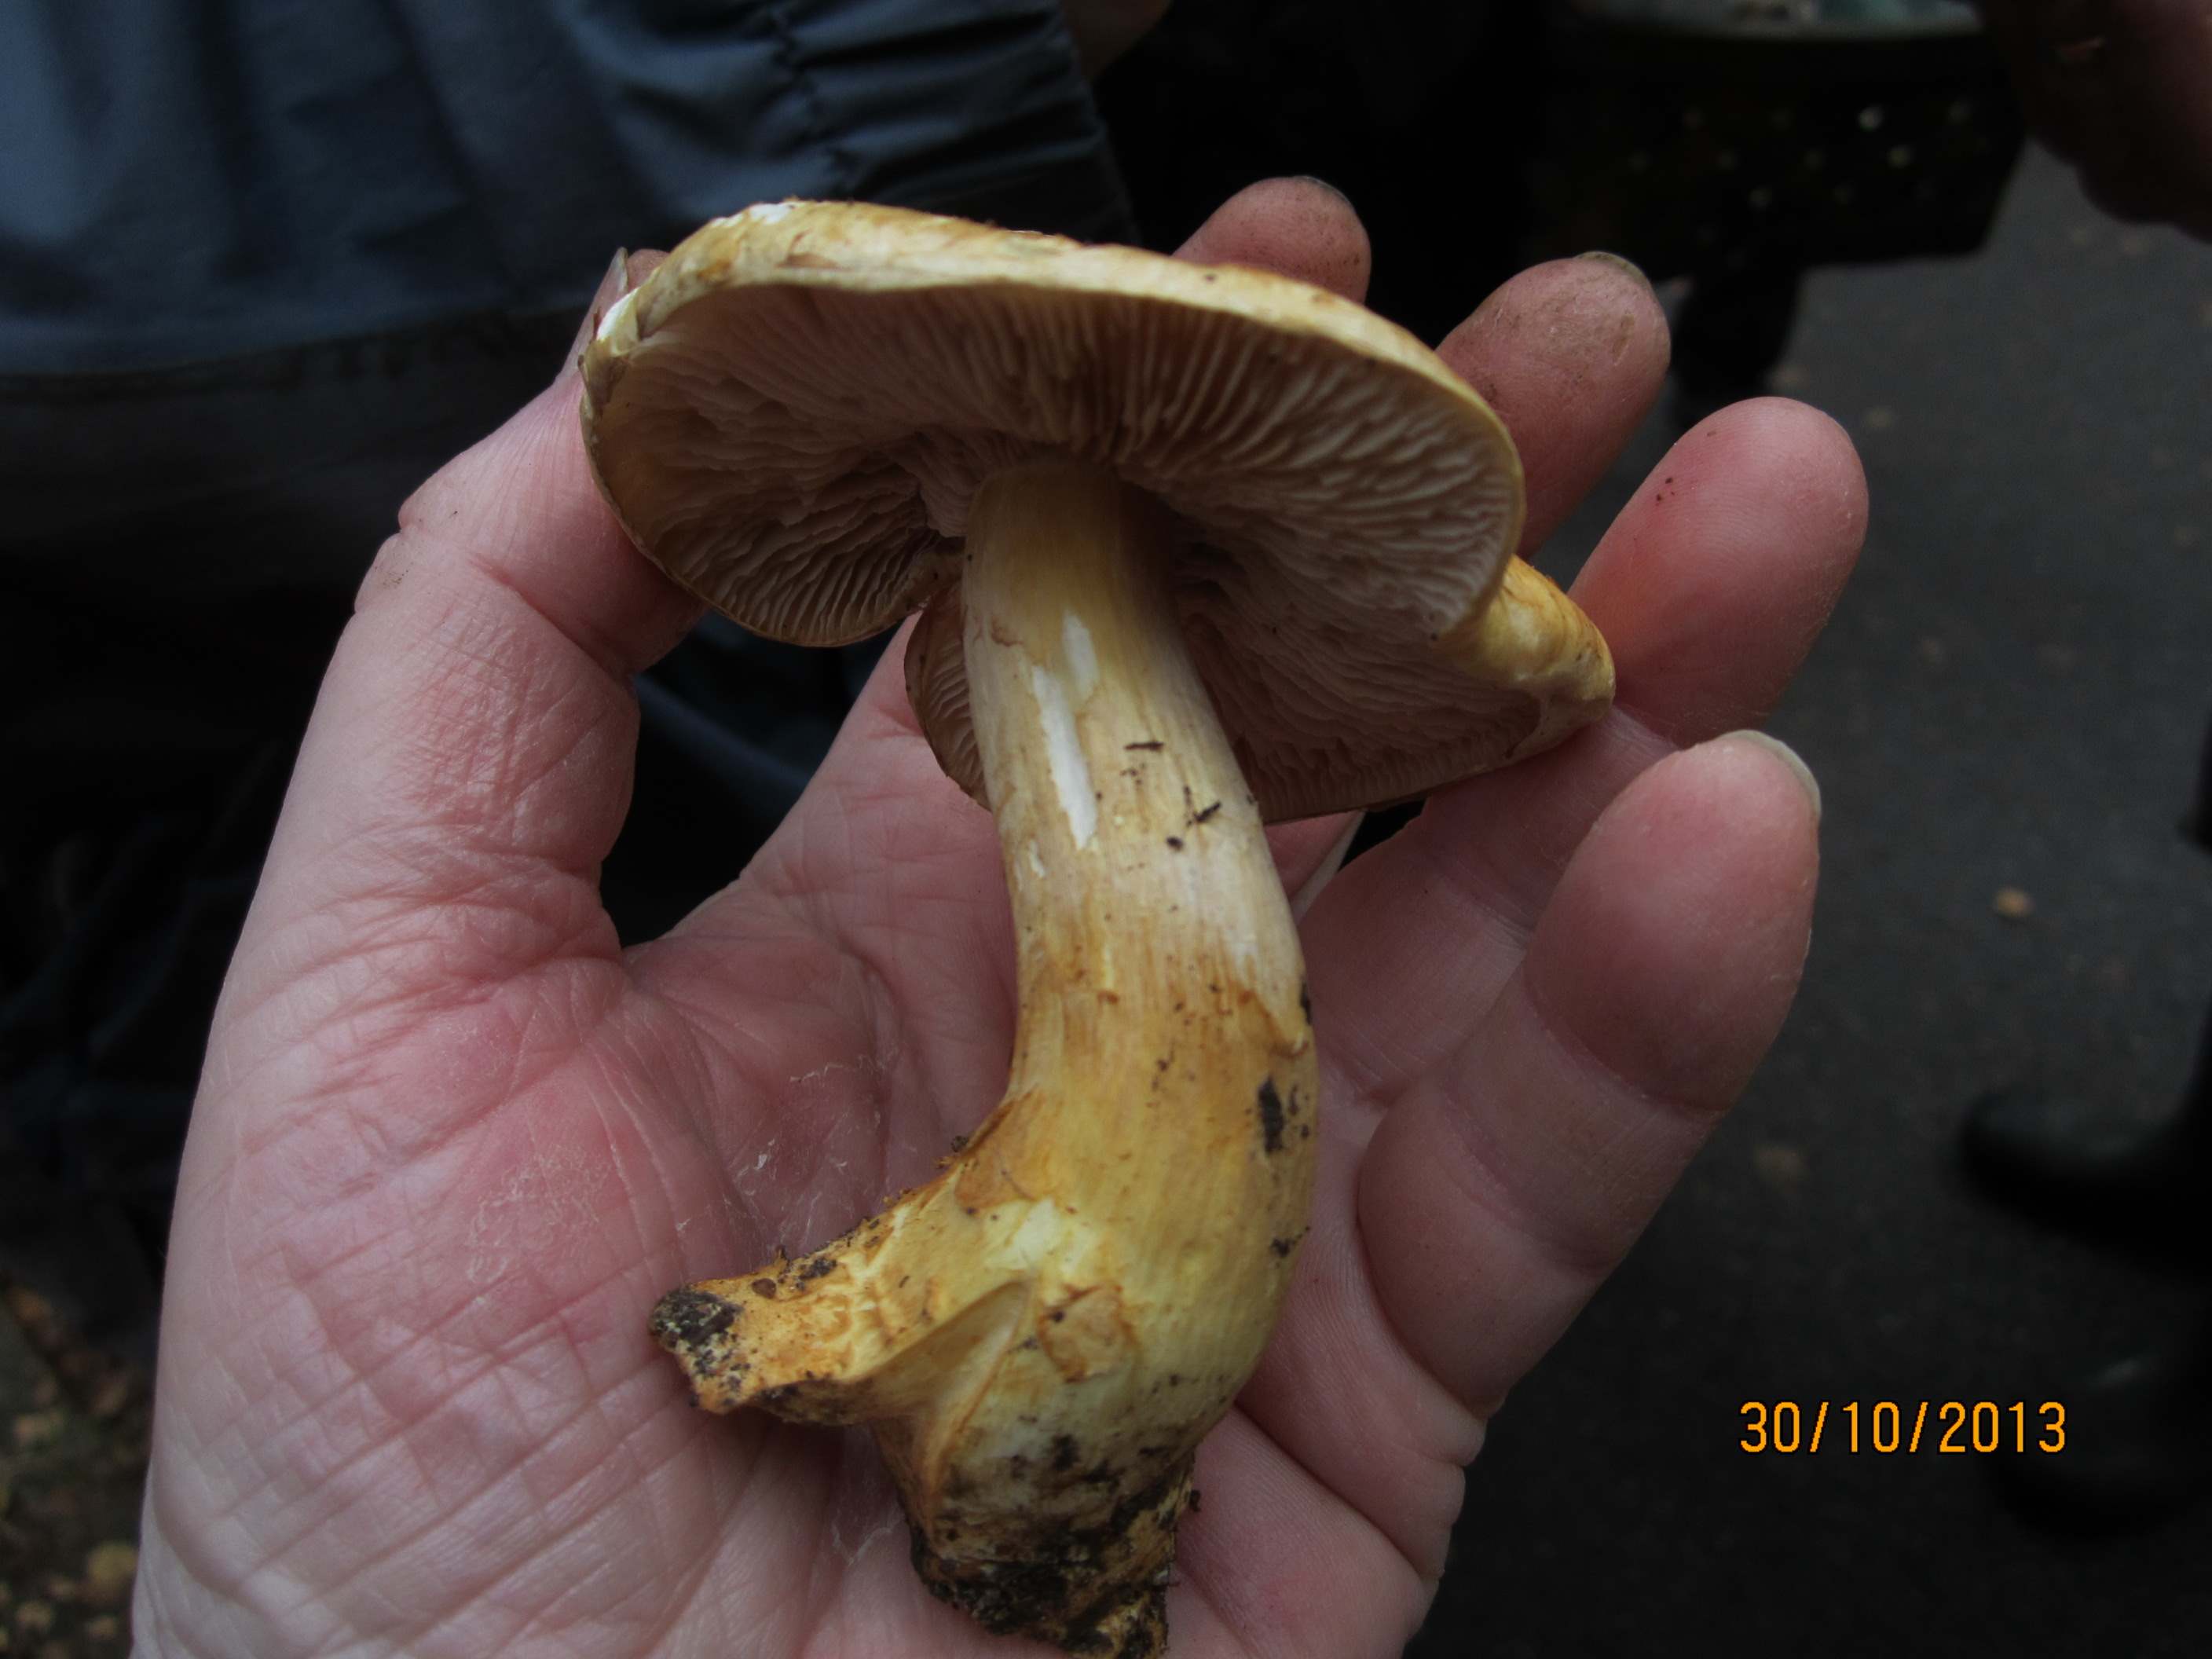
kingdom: Fungi
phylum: Basidiomycota
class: Agaricomycetes
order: Agaricales
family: Cortinariaceae
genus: Phlegmacium
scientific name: Phlegmacium triumphans
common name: gulbæltet slørhat
